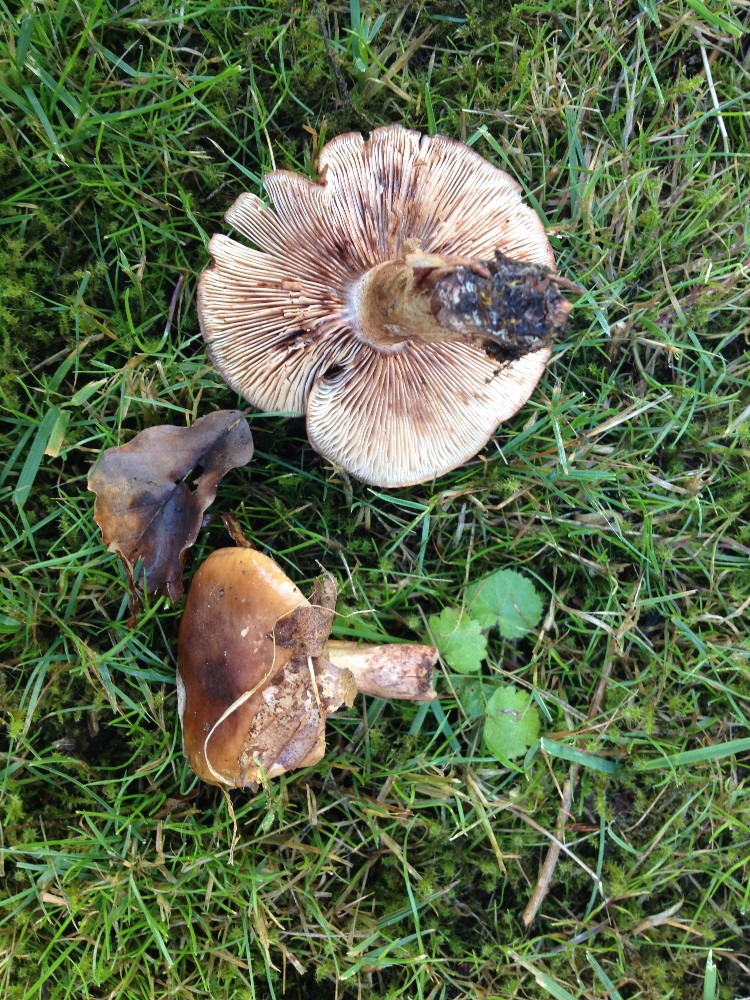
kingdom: Fungi
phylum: Basidiomycota
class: Agaricomycetes
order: Agaricales
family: Tricholomataceae
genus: Tricholoma
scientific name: Tricholoma ustale
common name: sveden ridderhat
